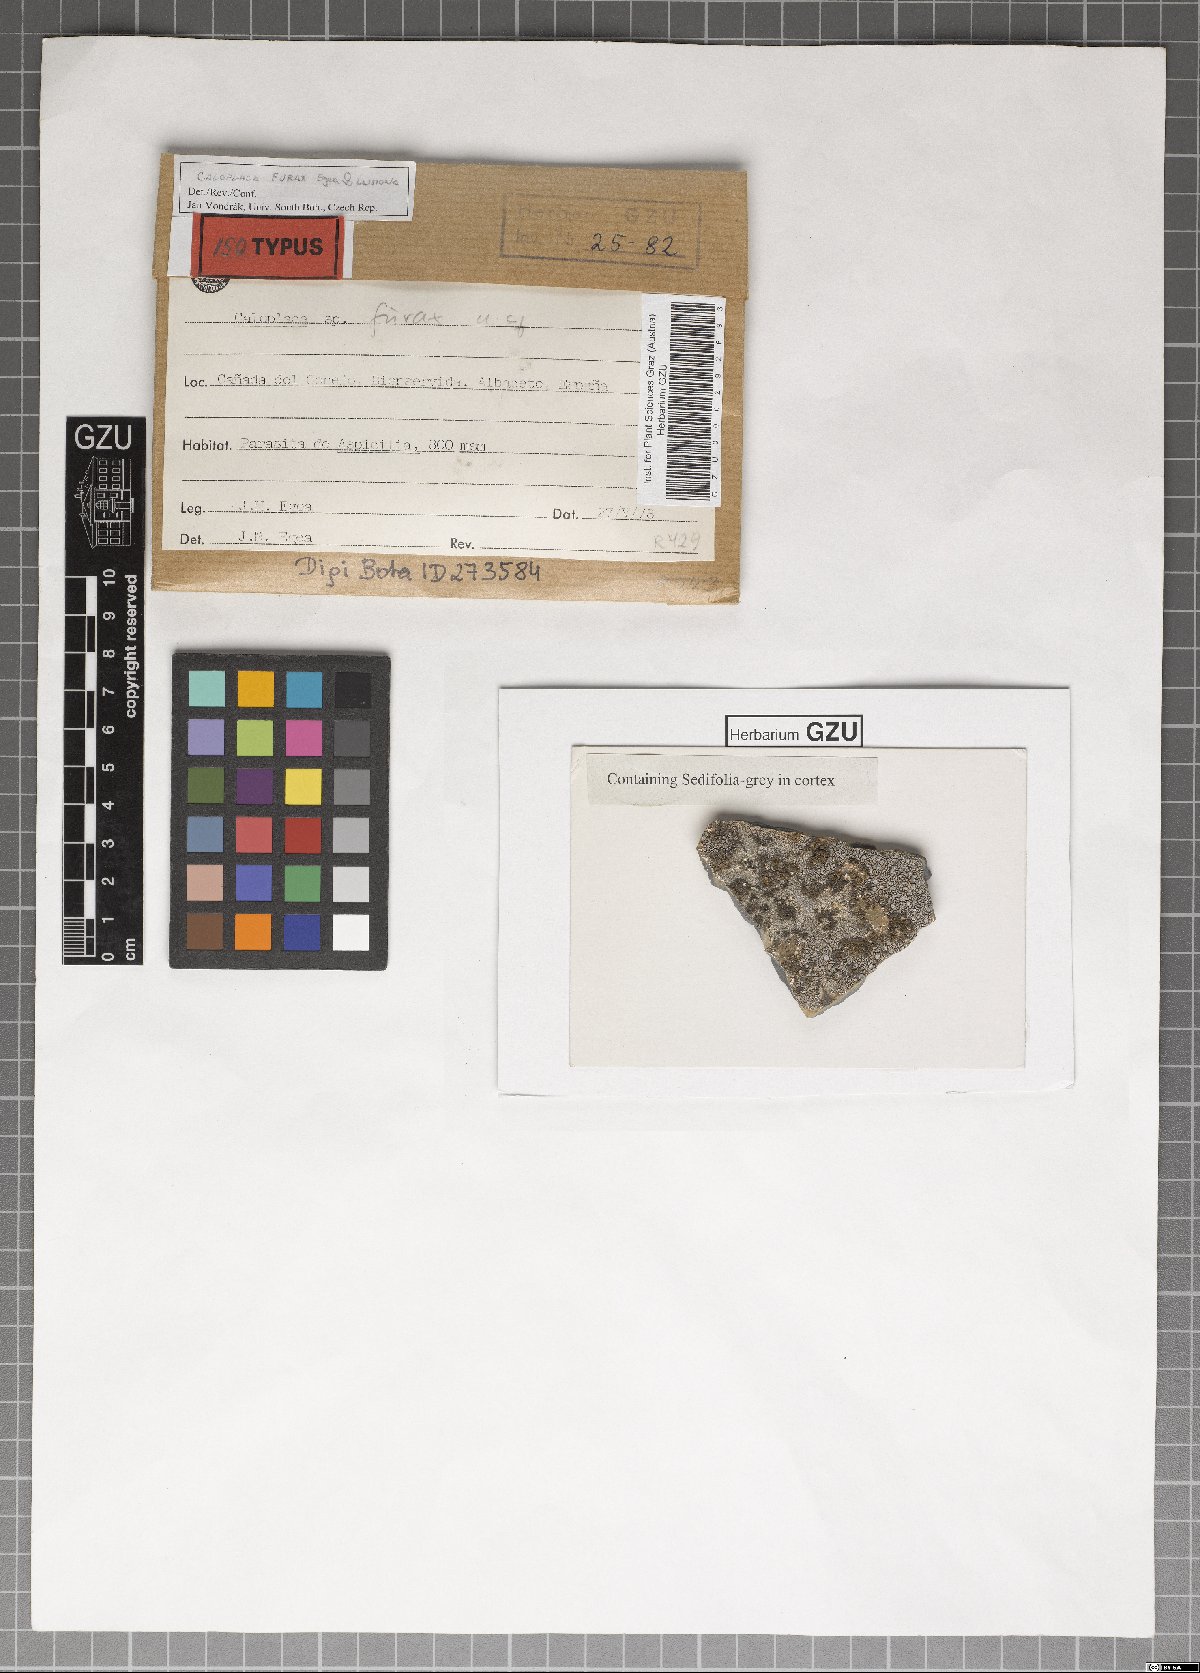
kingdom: Fungi
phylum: Ascomycota
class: Lecanoromycetes
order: Teloschistales
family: Teloschistaceae
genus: Kuettlingeria
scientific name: Kuettlingeria furax
